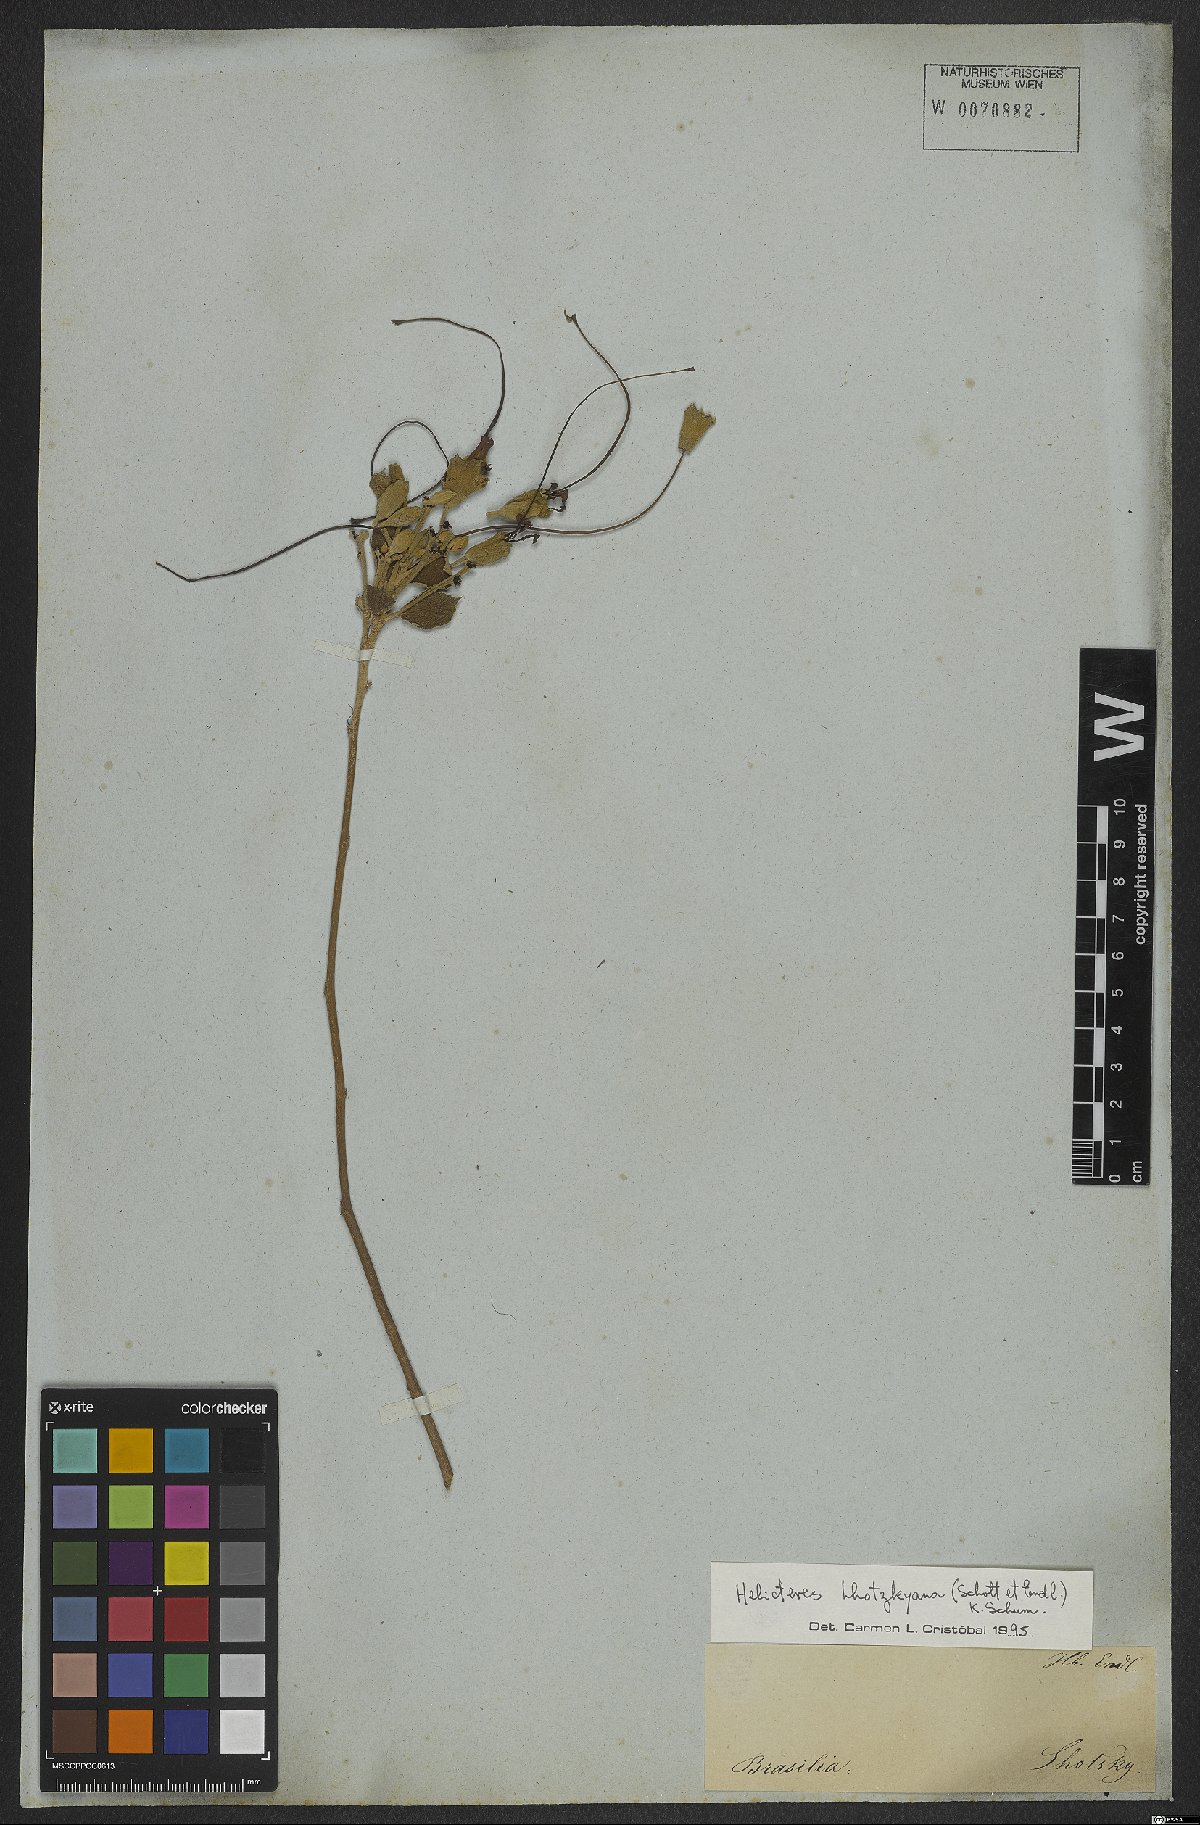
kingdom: Plantae
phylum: Tracheophyta
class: Magnoliopsida
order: Malvales
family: Malvaceae
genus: Helicteres
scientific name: Helicteres lhotzkyana
